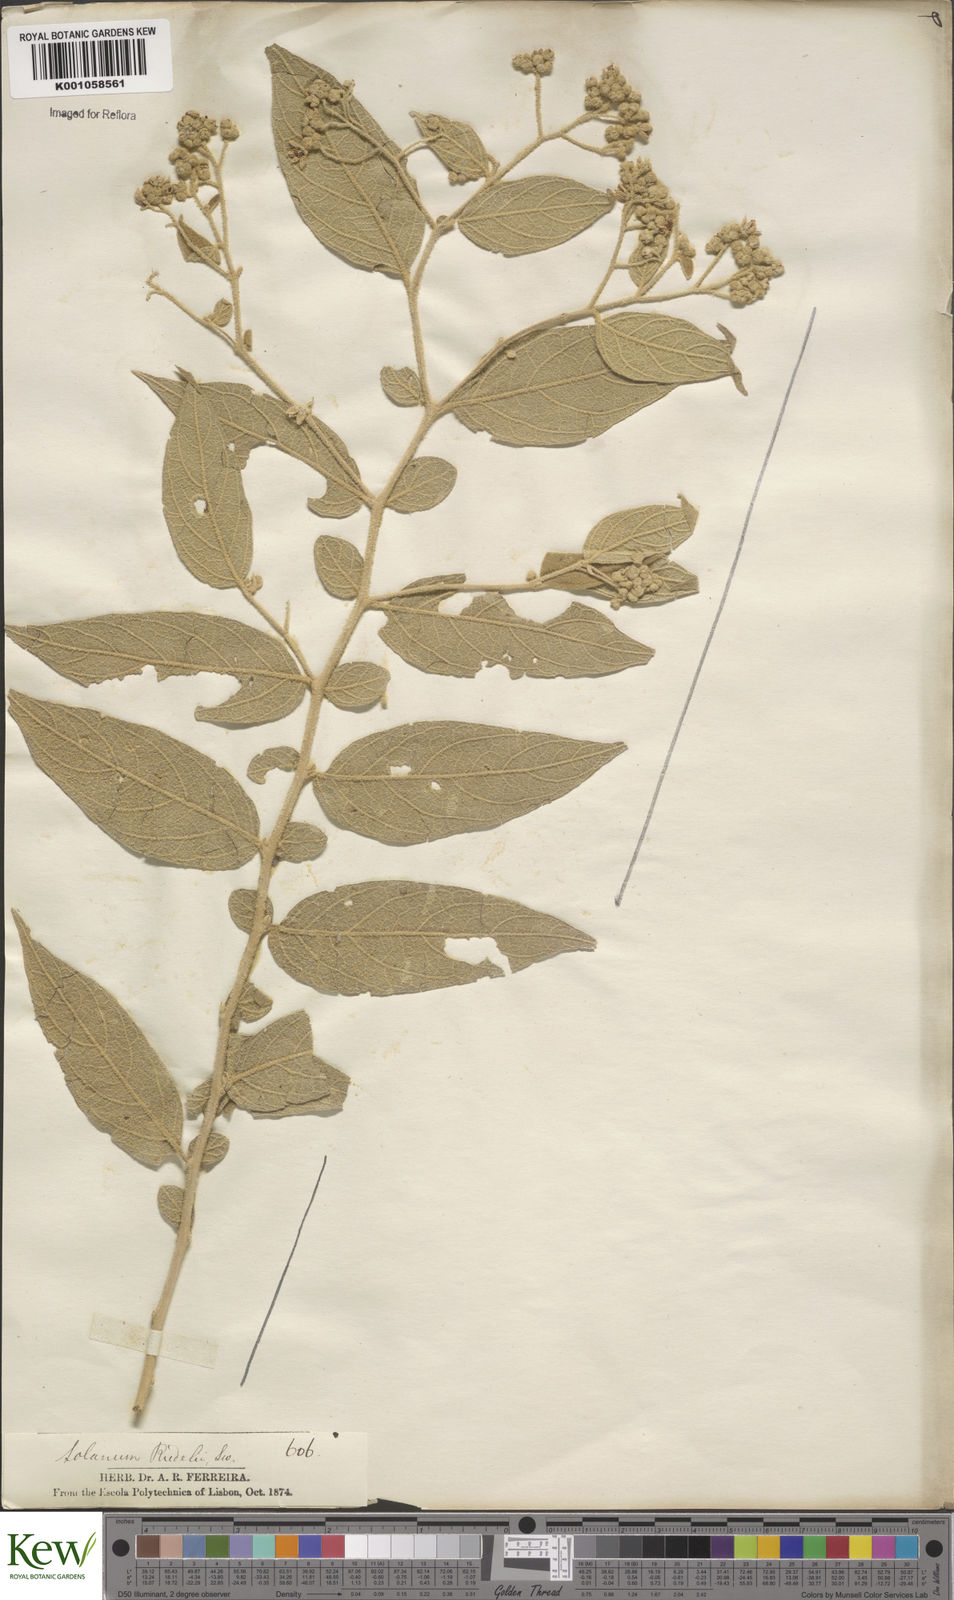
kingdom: Plantae
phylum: Tracheophyta
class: Magnoliopsida
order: Solanales
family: Solanaceae
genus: Solanum
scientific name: Solanum
